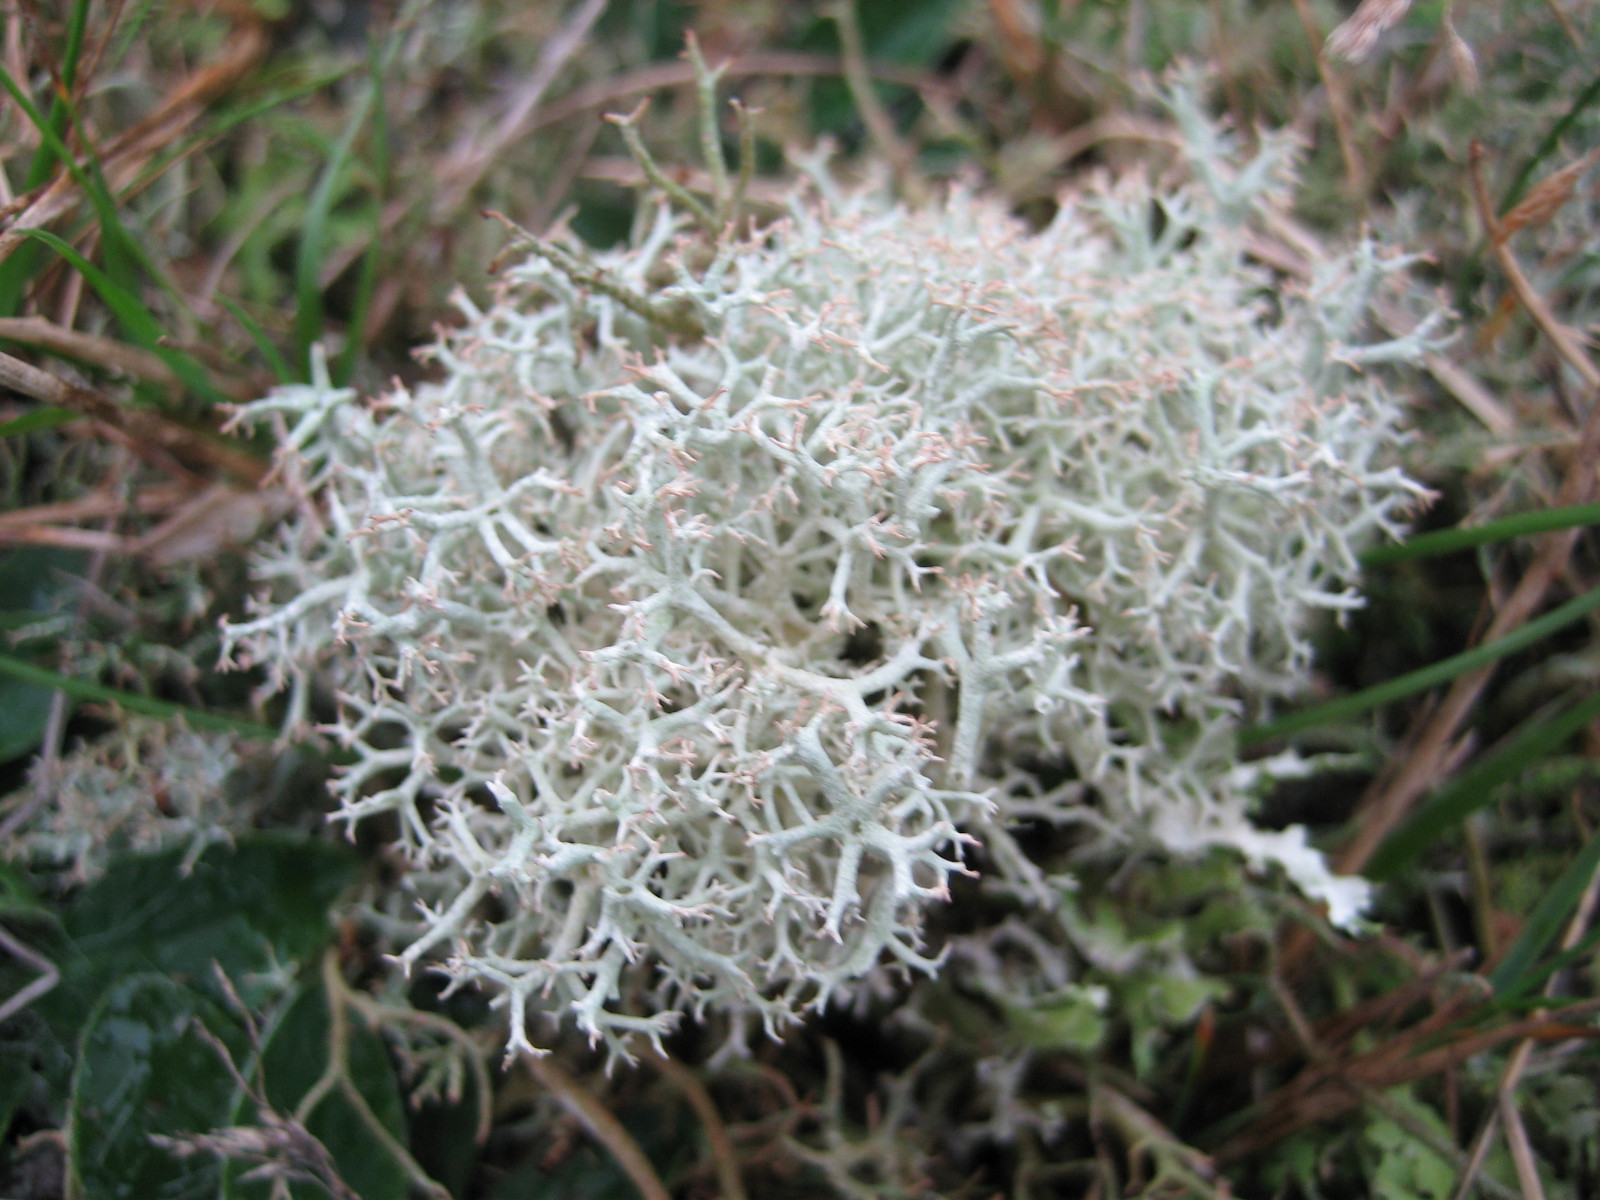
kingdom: Fungi
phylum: Ascomycota
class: Lecanoromycetes
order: Lecanorales
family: Cladoniaceae
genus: Cladonia
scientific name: Cladonia portentosa
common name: hede-rensdyrlav
